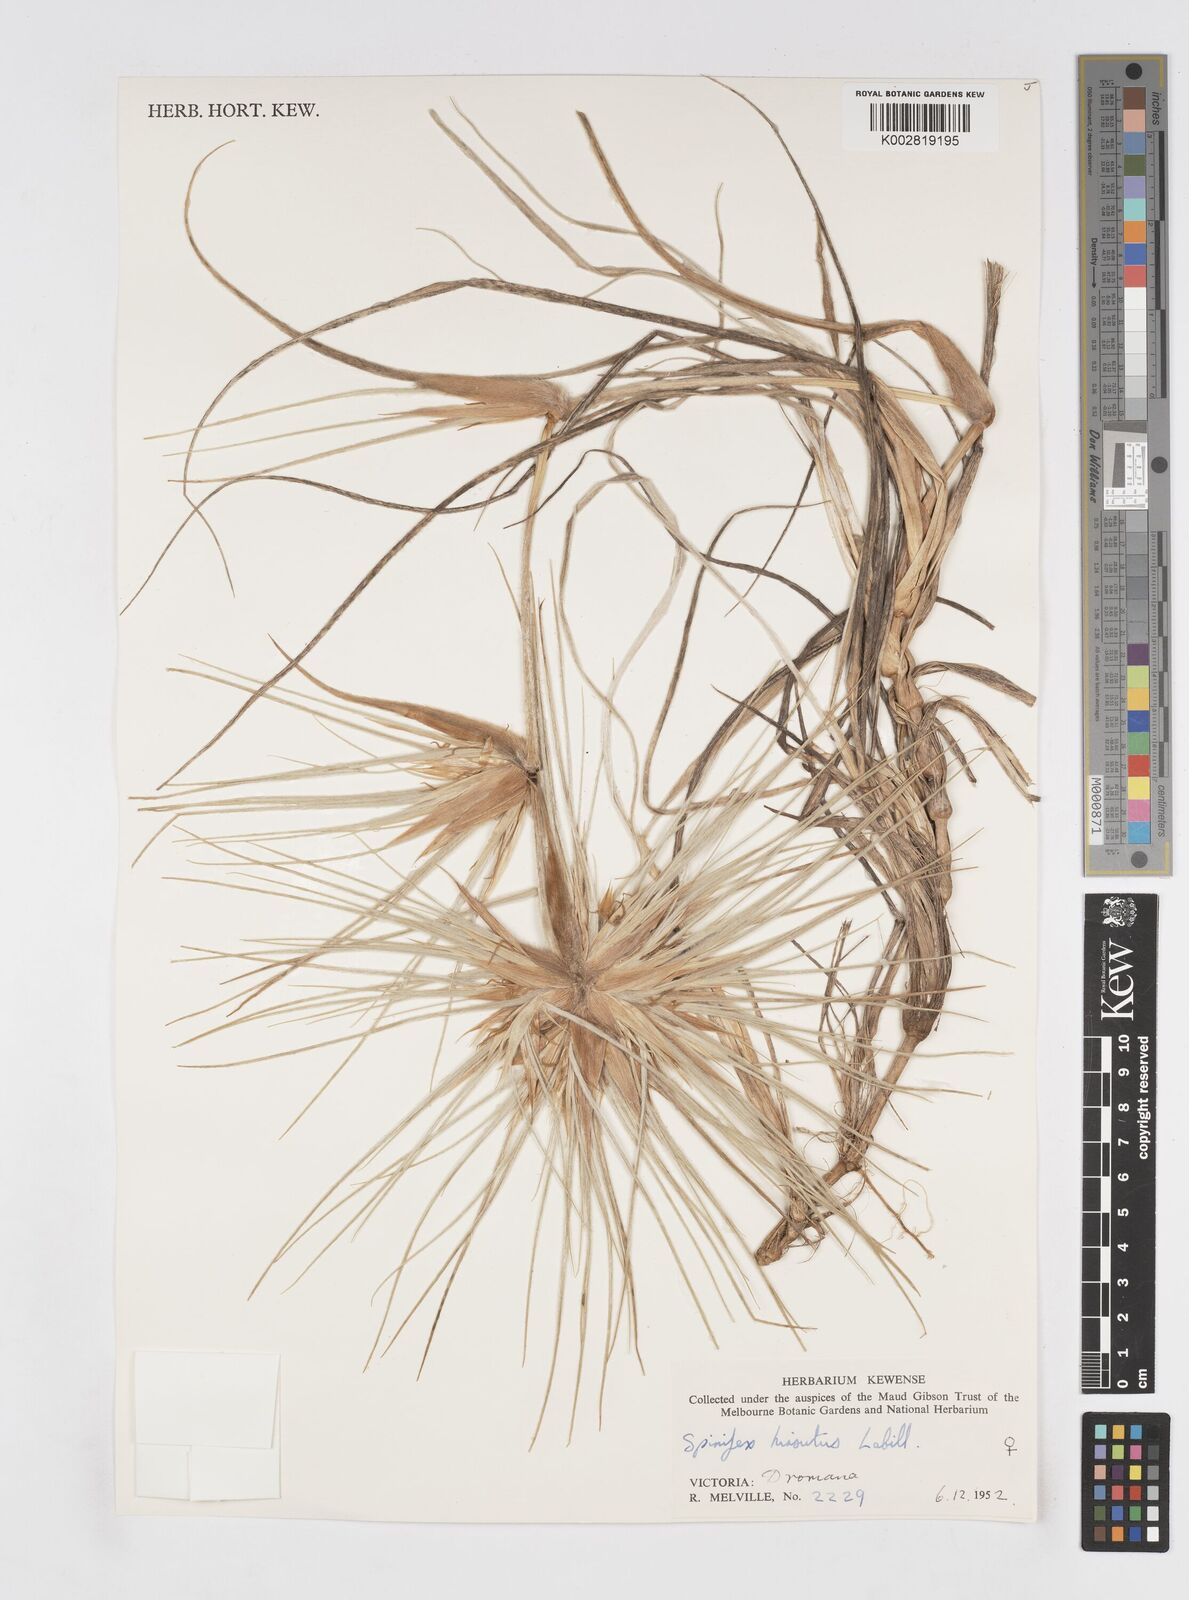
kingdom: Plantae
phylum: Tracheophyta
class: Liliopsida
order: Poales
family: Poaceae
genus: Spinifex
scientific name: Spinifex sericeus
